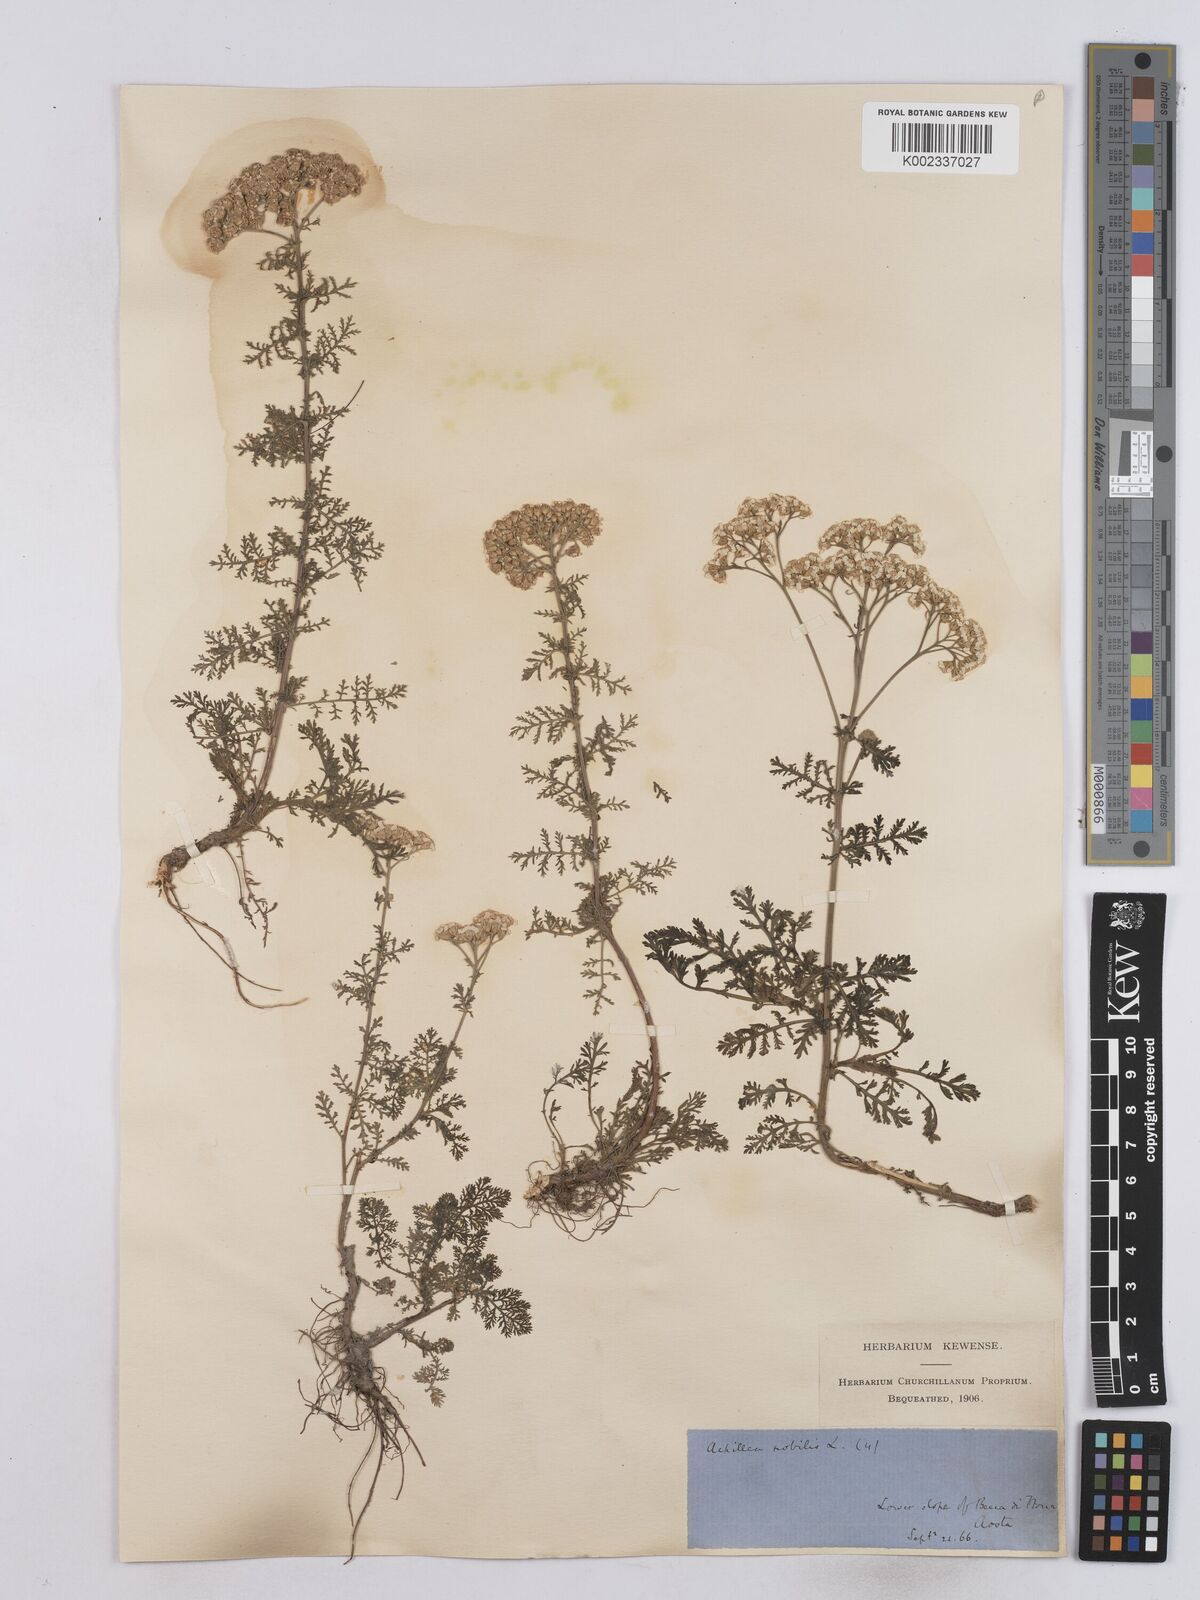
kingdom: Plantae
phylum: Tracheophyta
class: Magnoliopsida
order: Asterales
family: Asteraceae
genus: Achillea
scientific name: Achillea nobilis
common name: Noble yarrow
